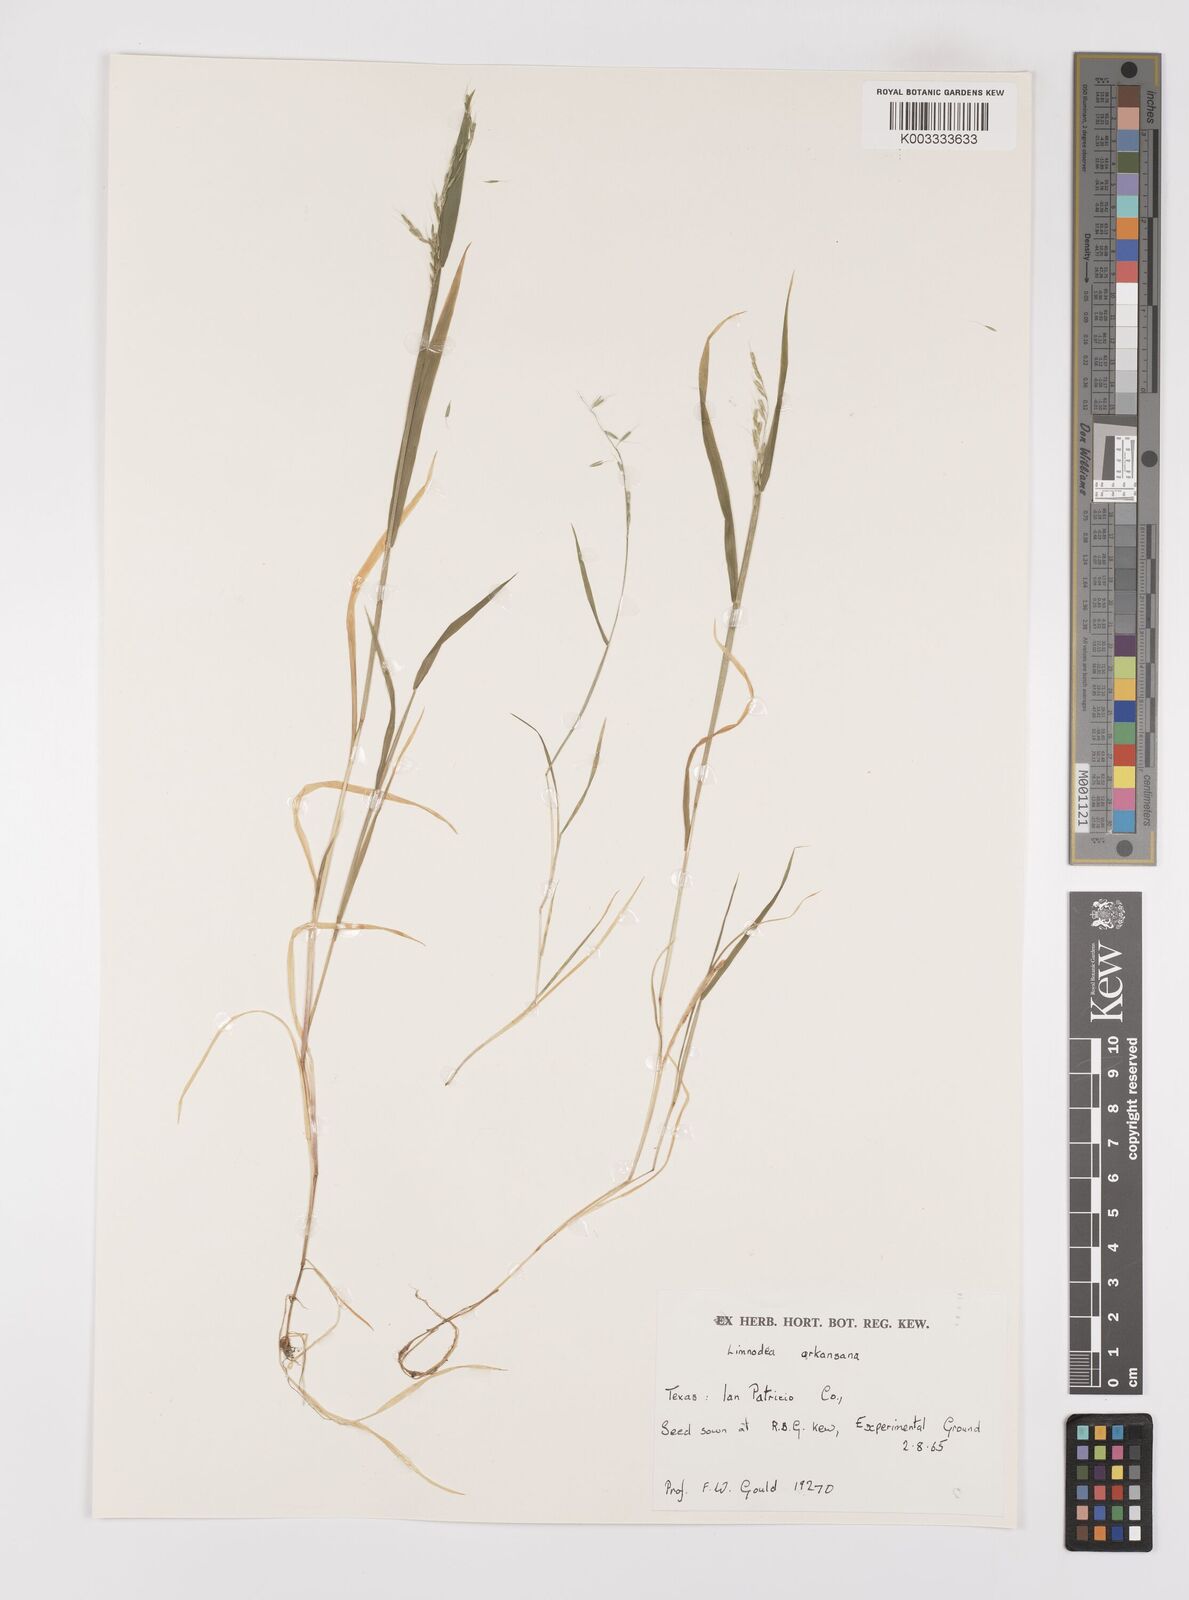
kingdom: Plantae
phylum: Tracheophyta
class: Liliopsida
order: Poales
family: Poaceae
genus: Limnodea
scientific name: Limnodea arkansana
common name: Ozark-grass
